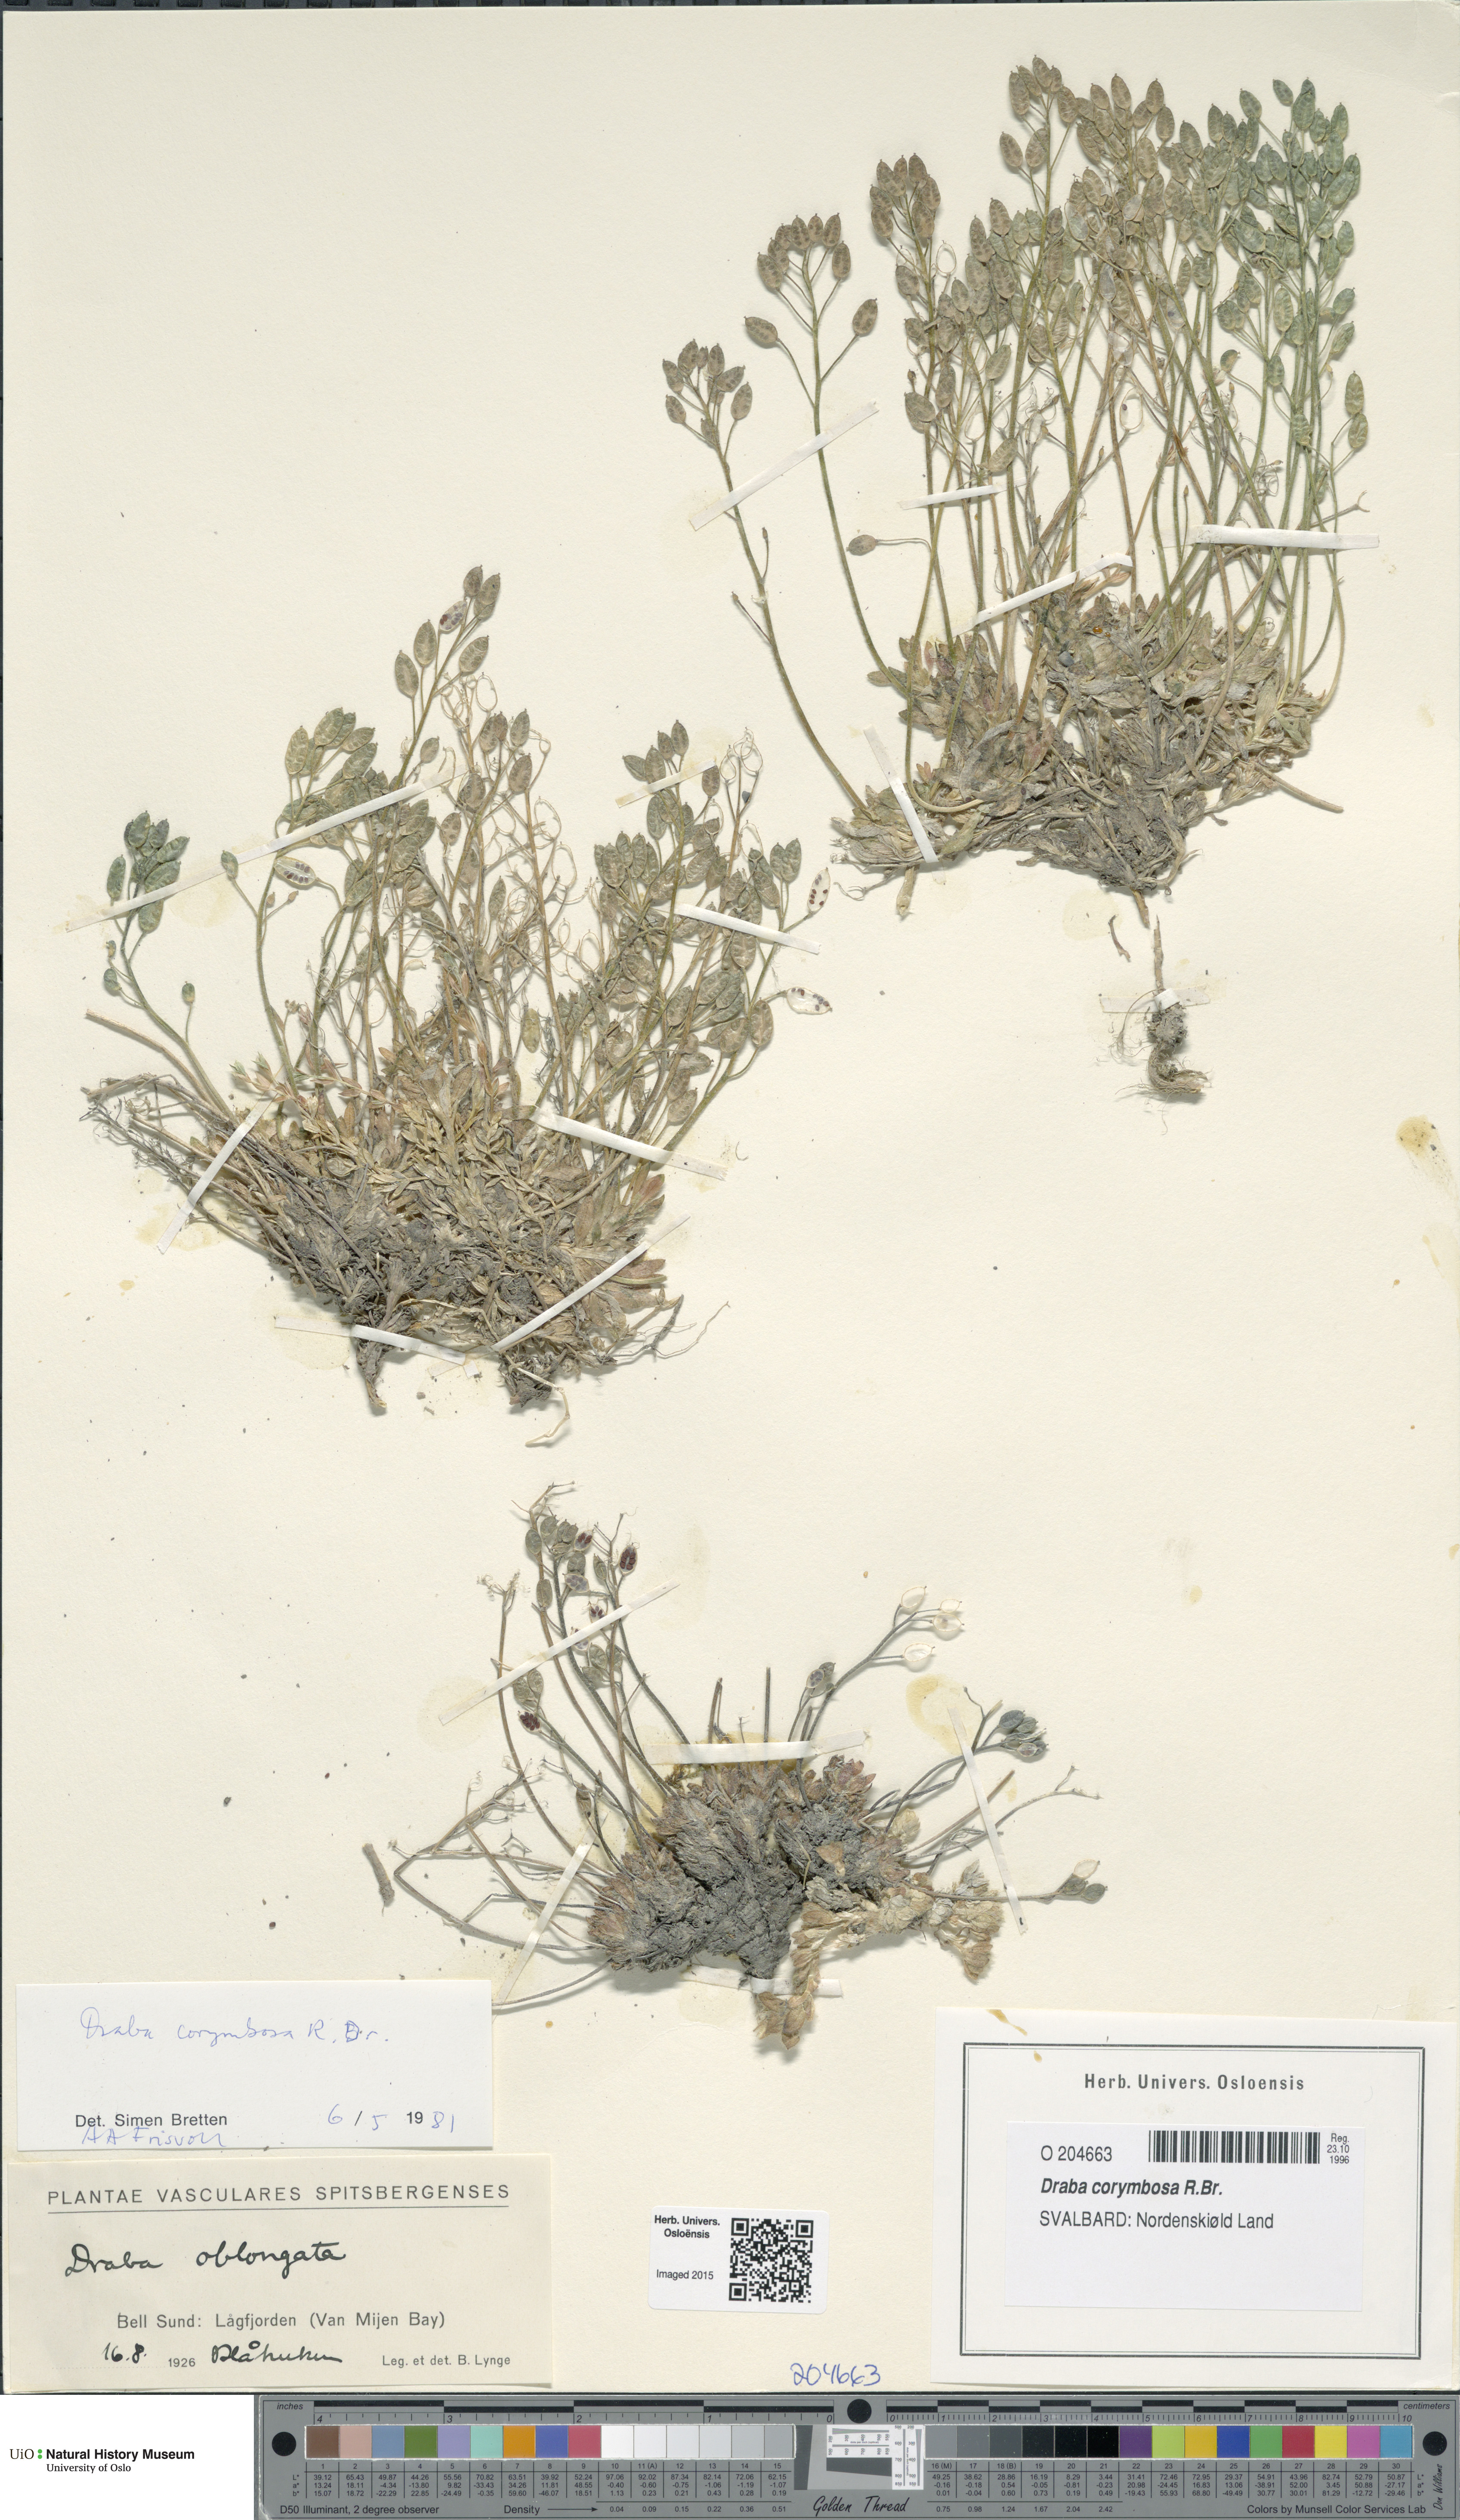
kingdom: Plantae
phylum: Tracheophyta
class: Magnoliopsida
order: Brassicales
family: Brassicaceae
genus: Draba
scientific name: Draba corymbosa
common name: Cushion whitlow-grass
